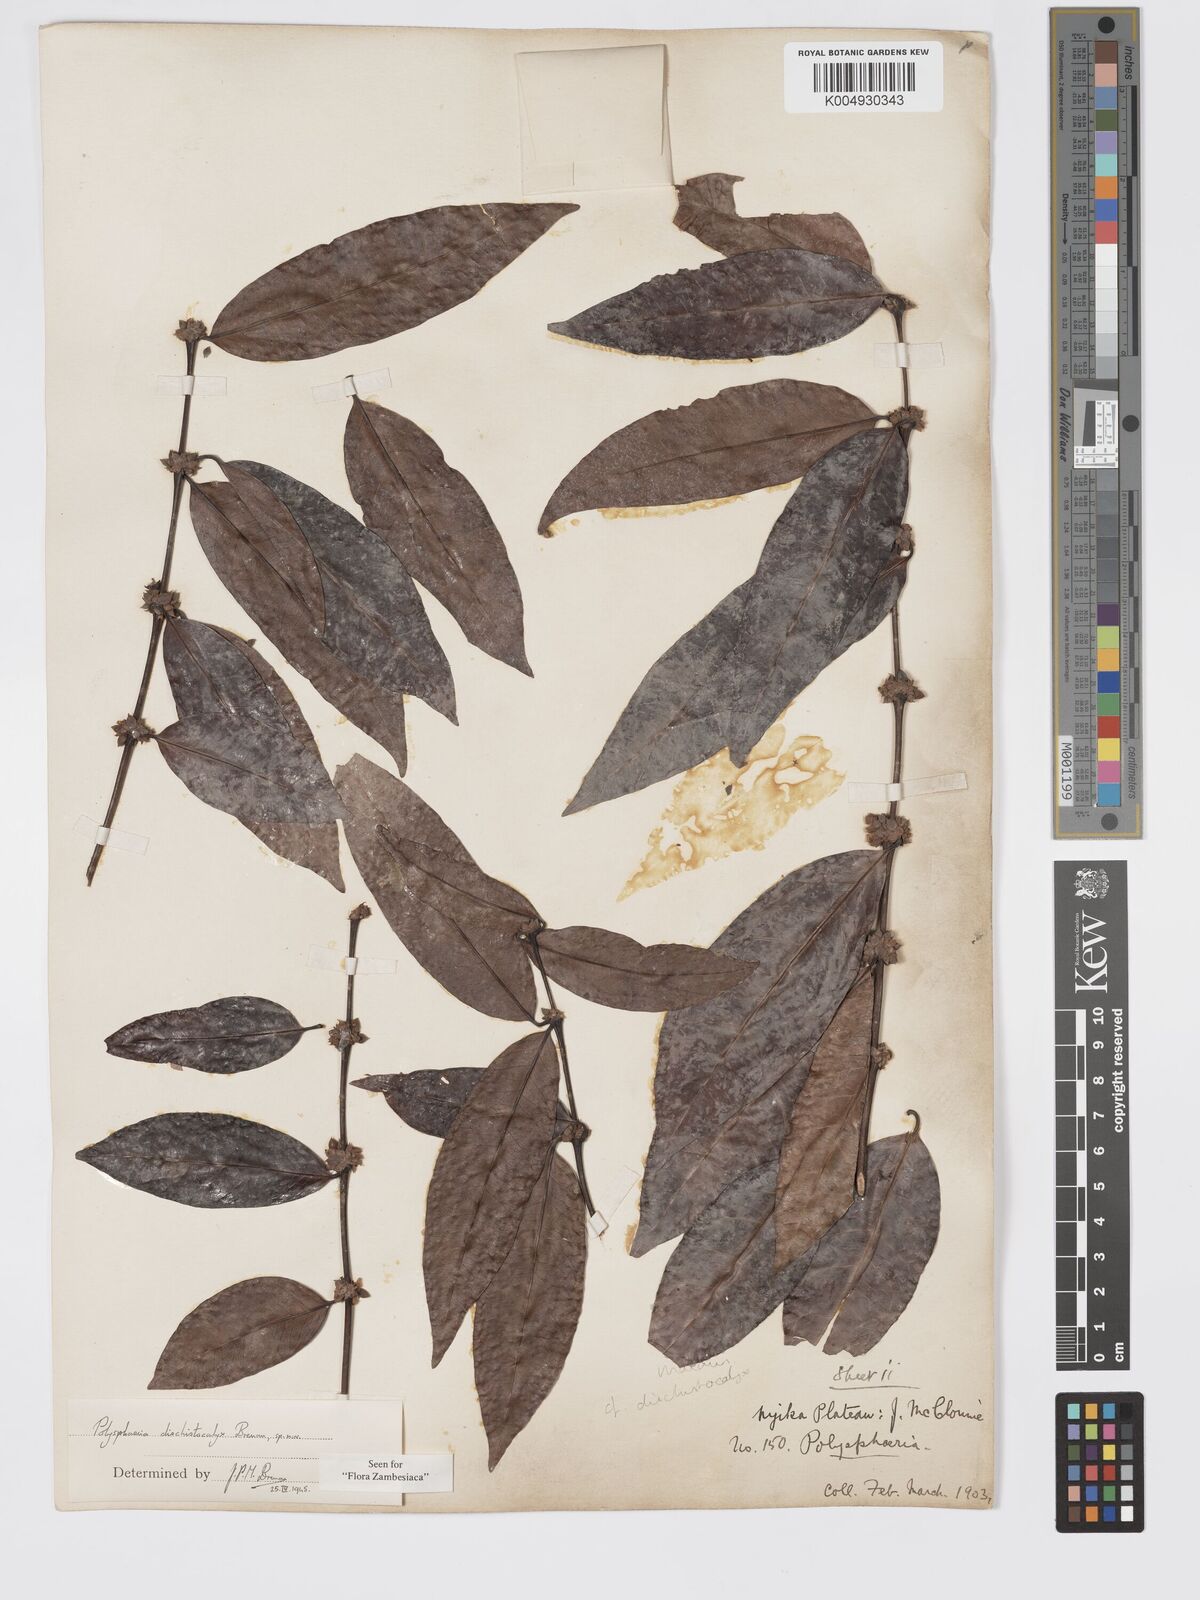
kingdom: Plantae
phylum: Tracheophyta
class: Magnoliopsida
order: Gentianales
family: Rubiaceae
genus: Polysphaeria
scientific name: Polysphaeria dischistocalyx
